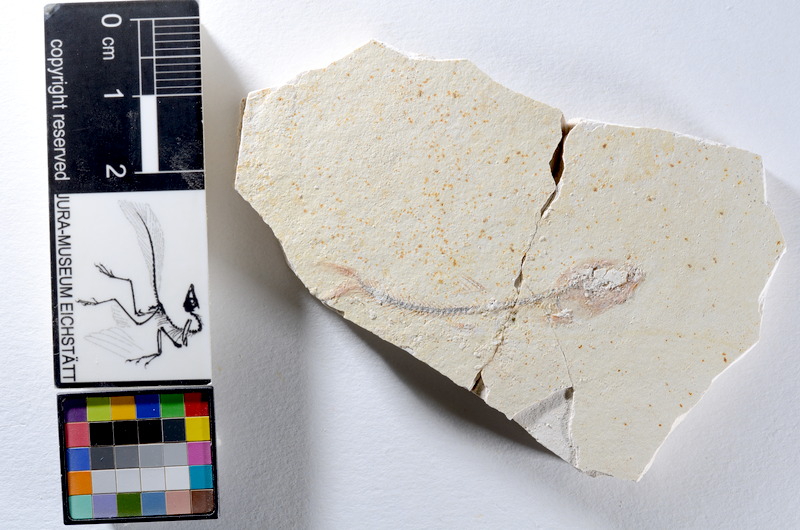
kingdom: Animalia
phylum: Chordata
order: Salmoniformes
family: Orthogonikleithridae
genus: Orthogonikleithrus
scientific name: Orthogonikleithrus hoelli
